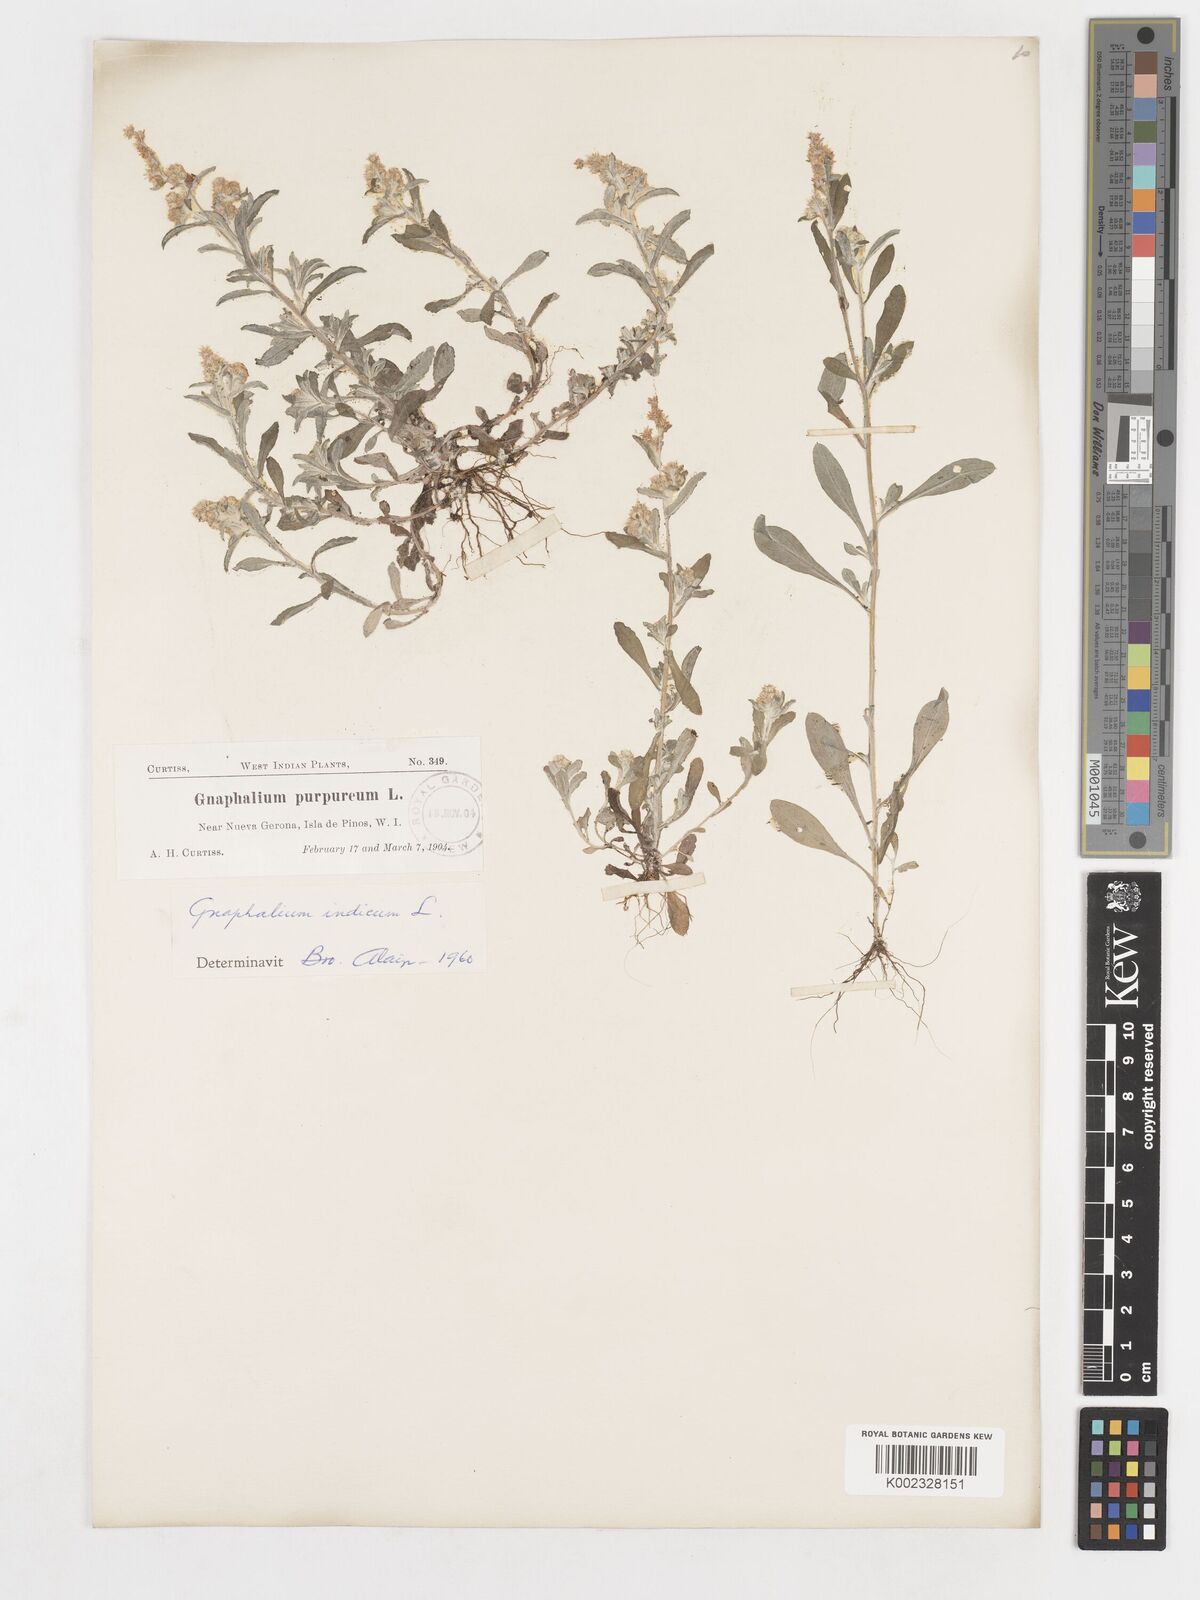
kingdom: Plantae
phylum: Tracheophyta
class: Magnoliopsida
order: Asterales
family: Asteraceae
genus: Gamochaeta
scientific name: Gamochaeta purpurea
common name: Purple cudweed
